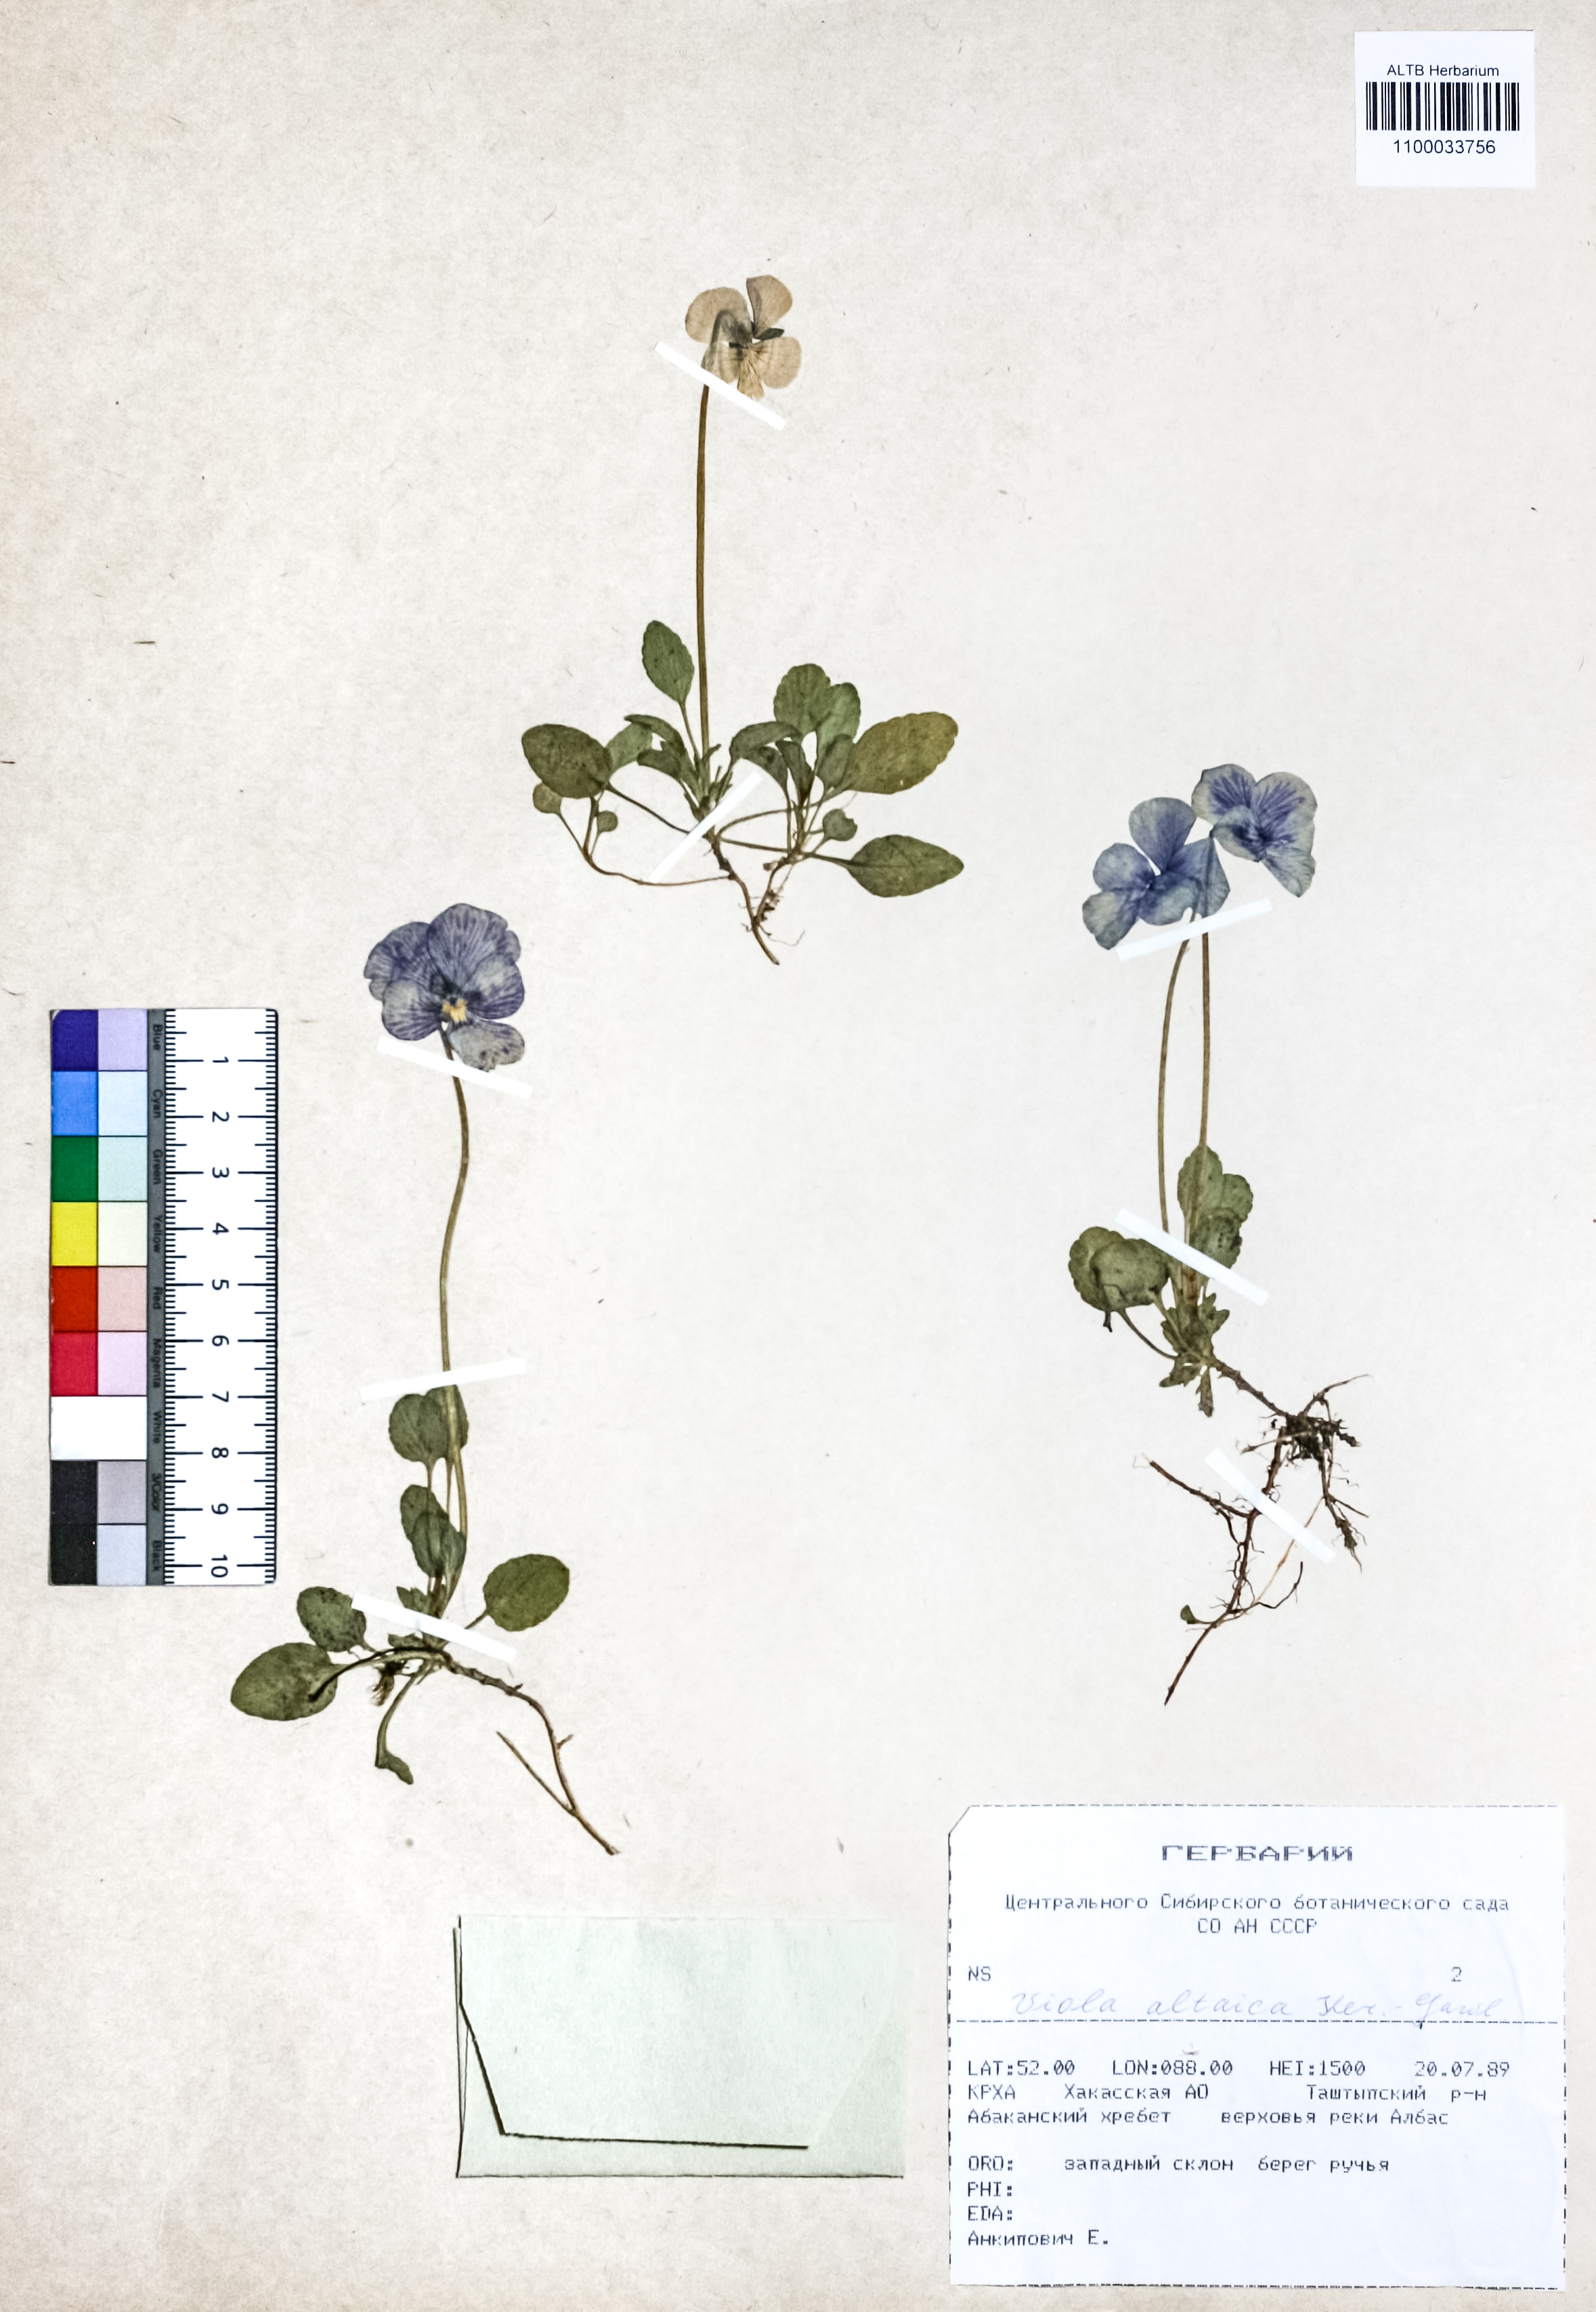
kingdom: Plantae
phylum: Tracheophyta
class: Magnoliopsida
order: Malpighiales
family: Violaceae
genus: Viola
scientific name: Viola altaica
